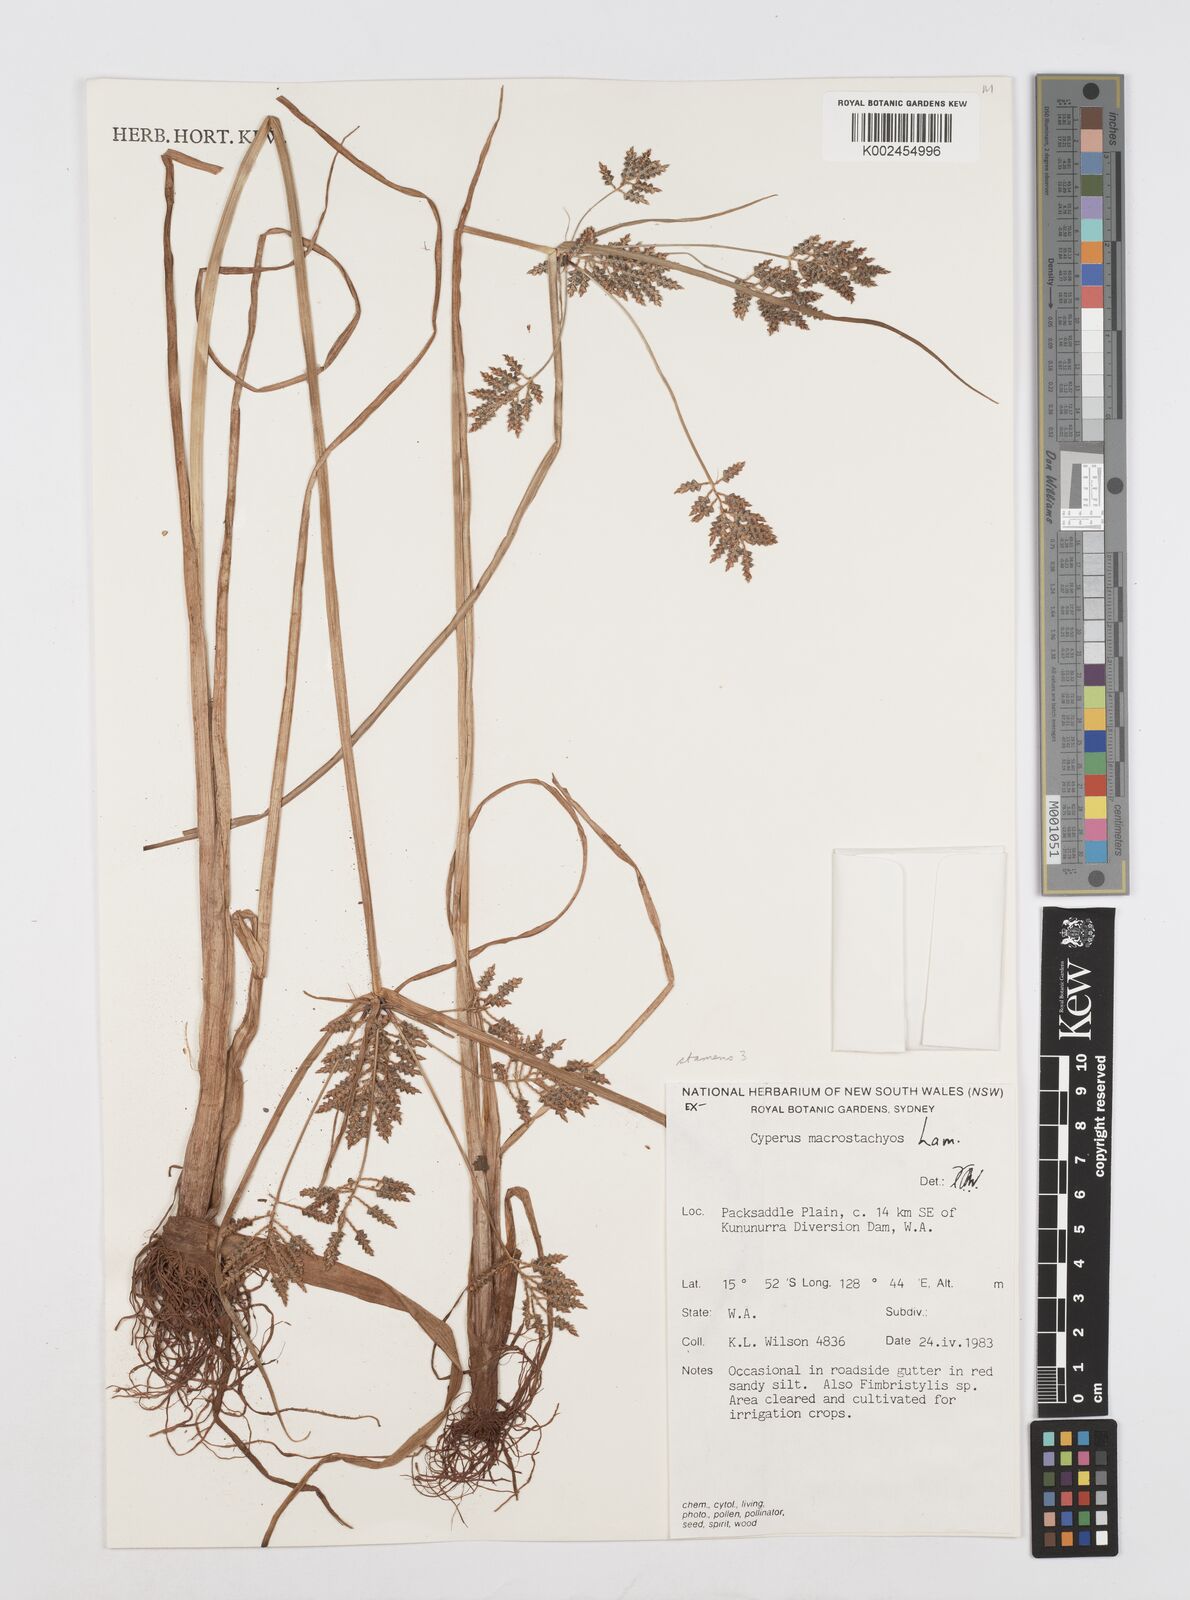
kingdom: Plantae
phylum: Tracheophyta
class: Liliopsida
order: Poales
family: Cyperaceae
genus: Cyperus
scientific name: Cyperus macrostachyos
